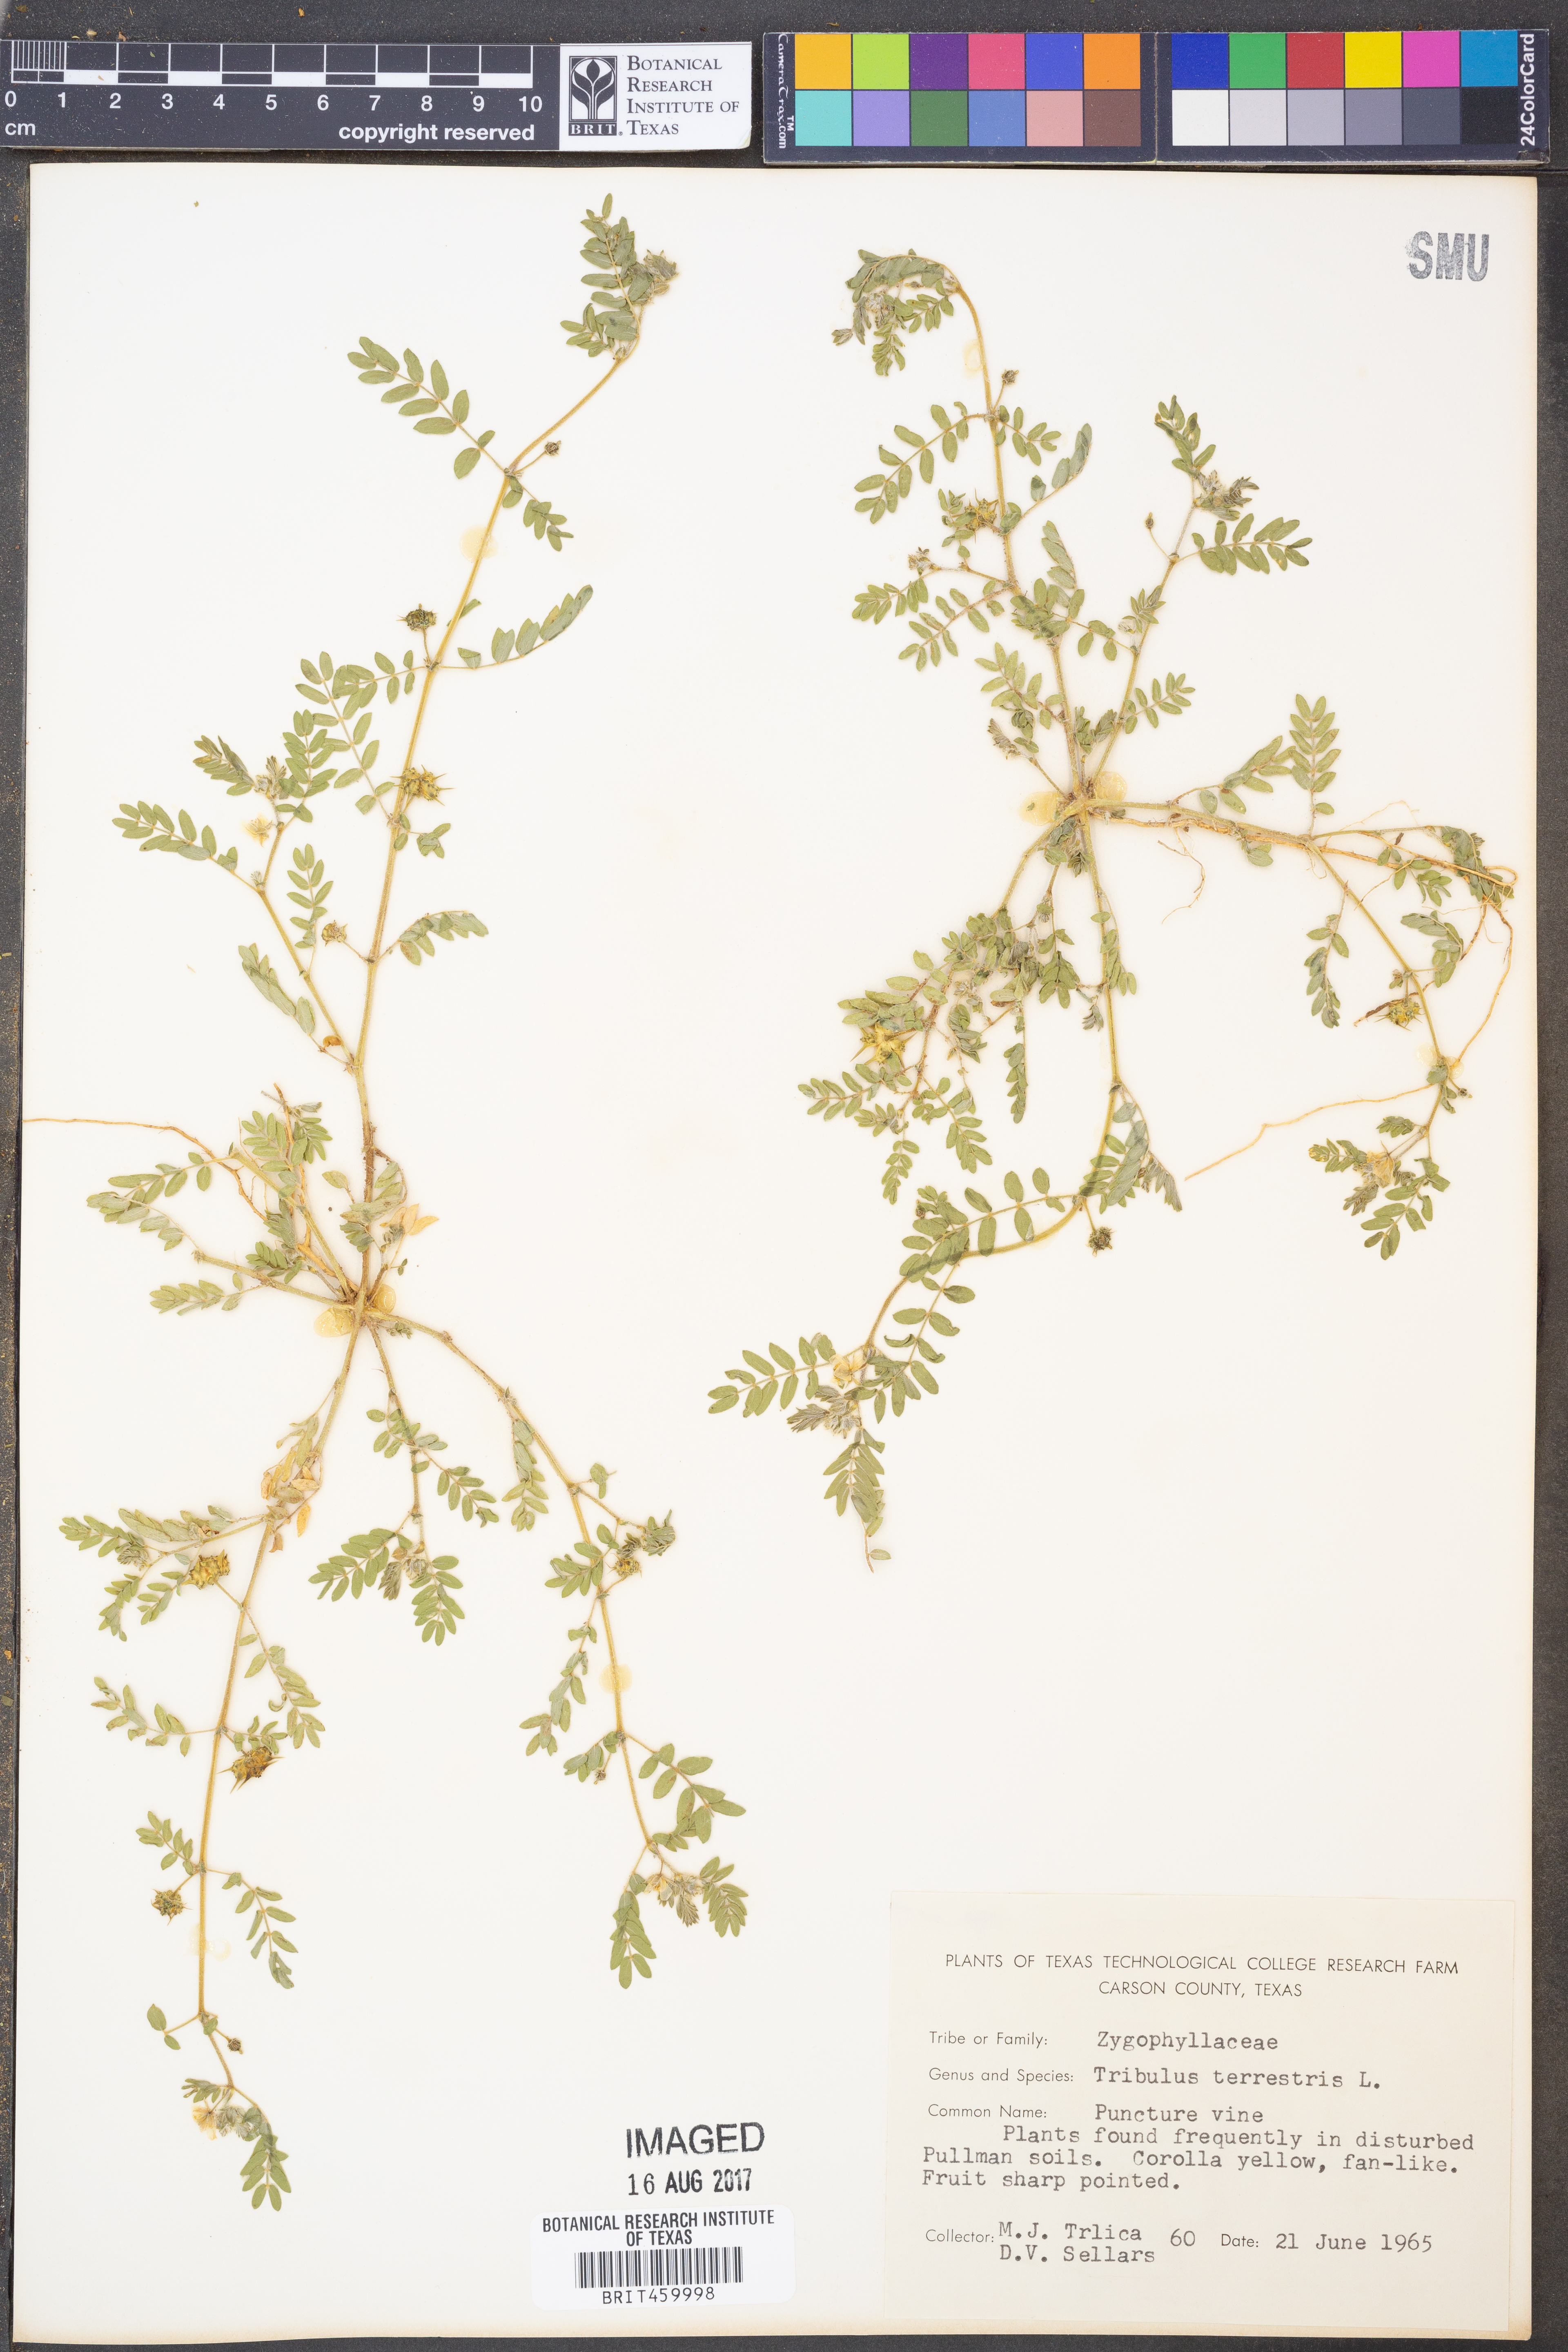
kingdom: Plantae
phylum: Tracheophyta
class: Magnoliopsida
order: Zygophyllales
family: Zygophyllaceae
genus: Tribulus
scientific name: Tribulus terrestris
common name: Puncturevine
